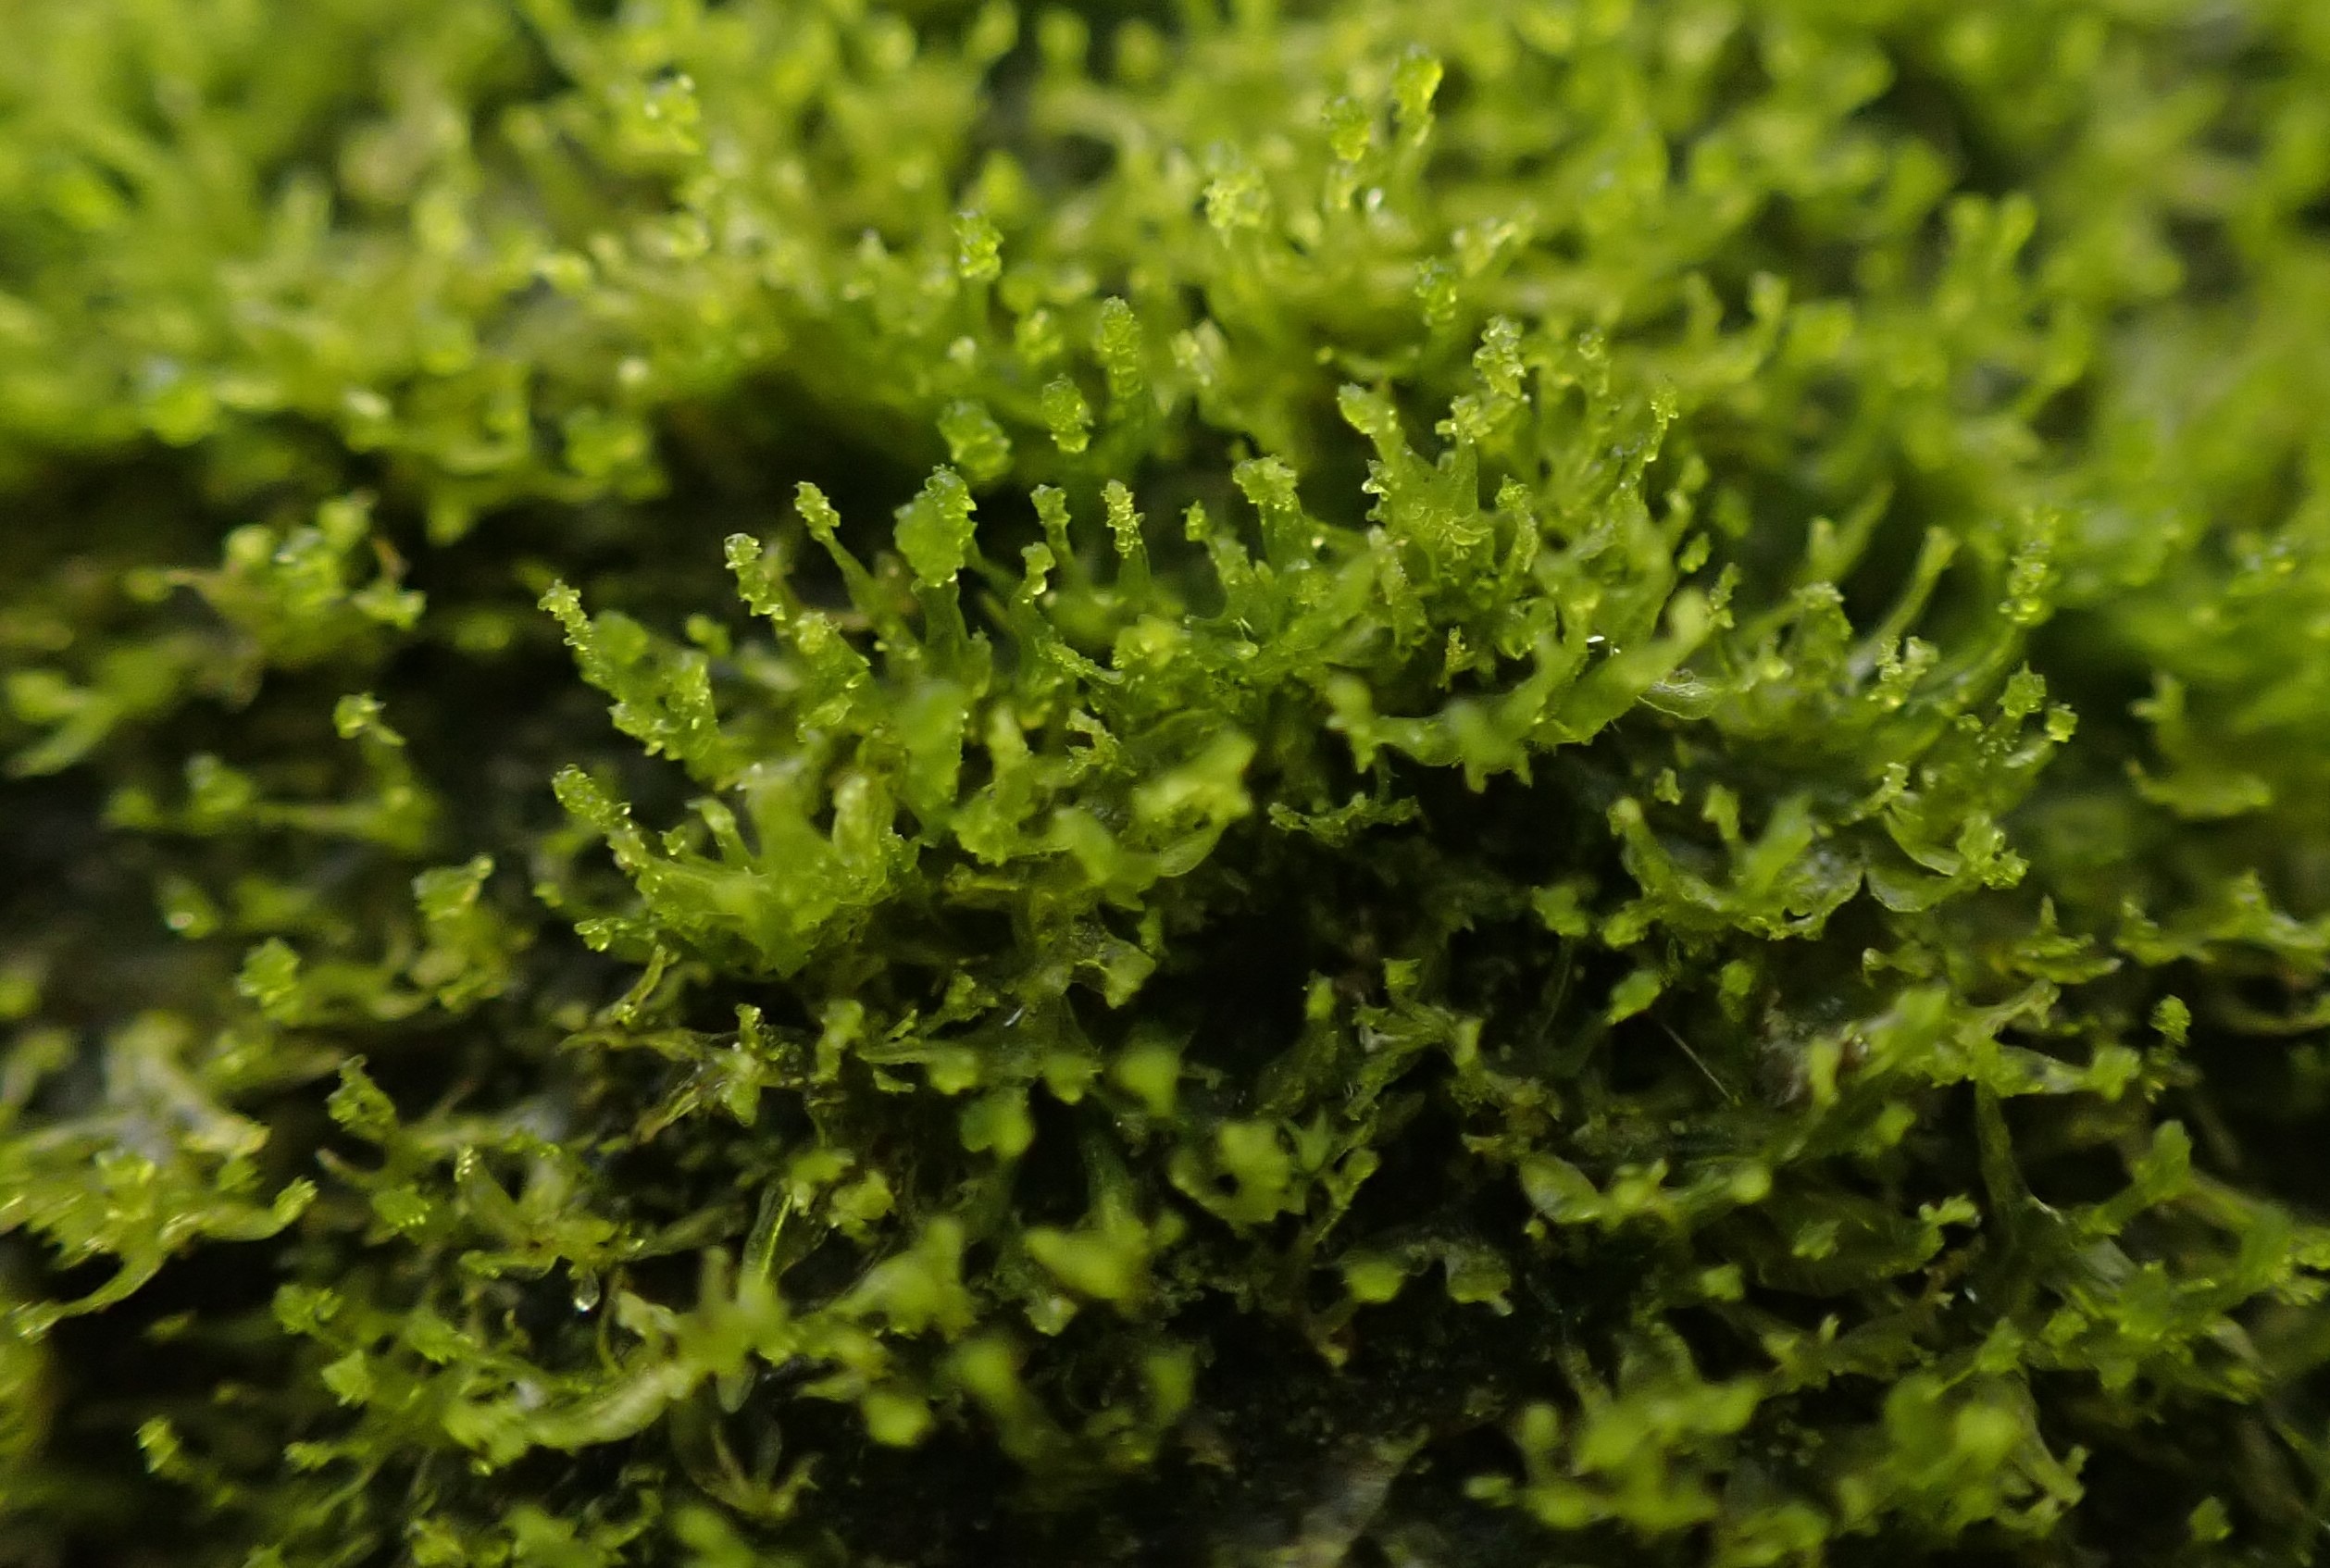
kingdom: Plantae
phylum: Marchantiophyta
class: Jungermanniopsida
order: Metzgeriales
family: Aneuraceae
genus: Riccardia
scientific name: Riccardia palmata
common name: Blågrøn gaffelløv
